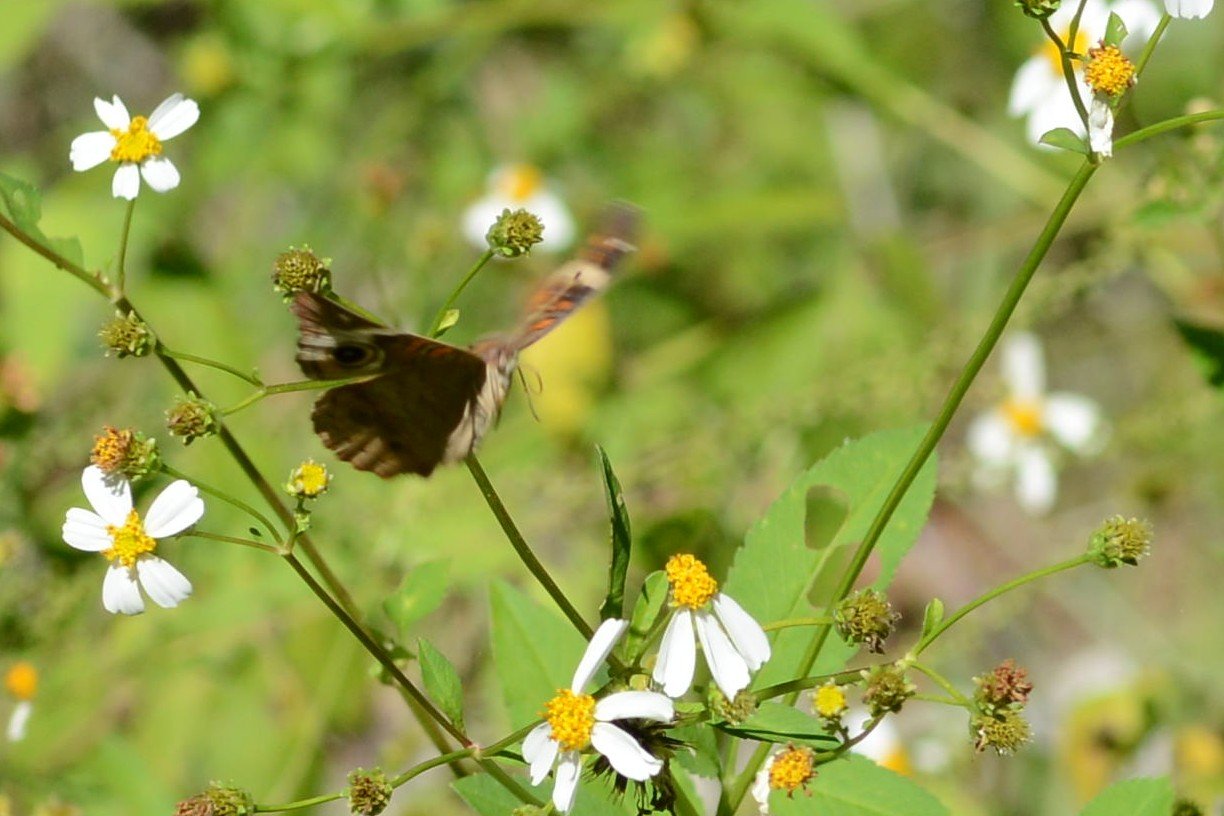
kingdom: Animalia
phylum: Arthropoda
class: Insecta
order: Lepidoptera
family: Nymphalidae
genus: Junonia
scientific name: Junonia coenia
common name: Common Buckeye
